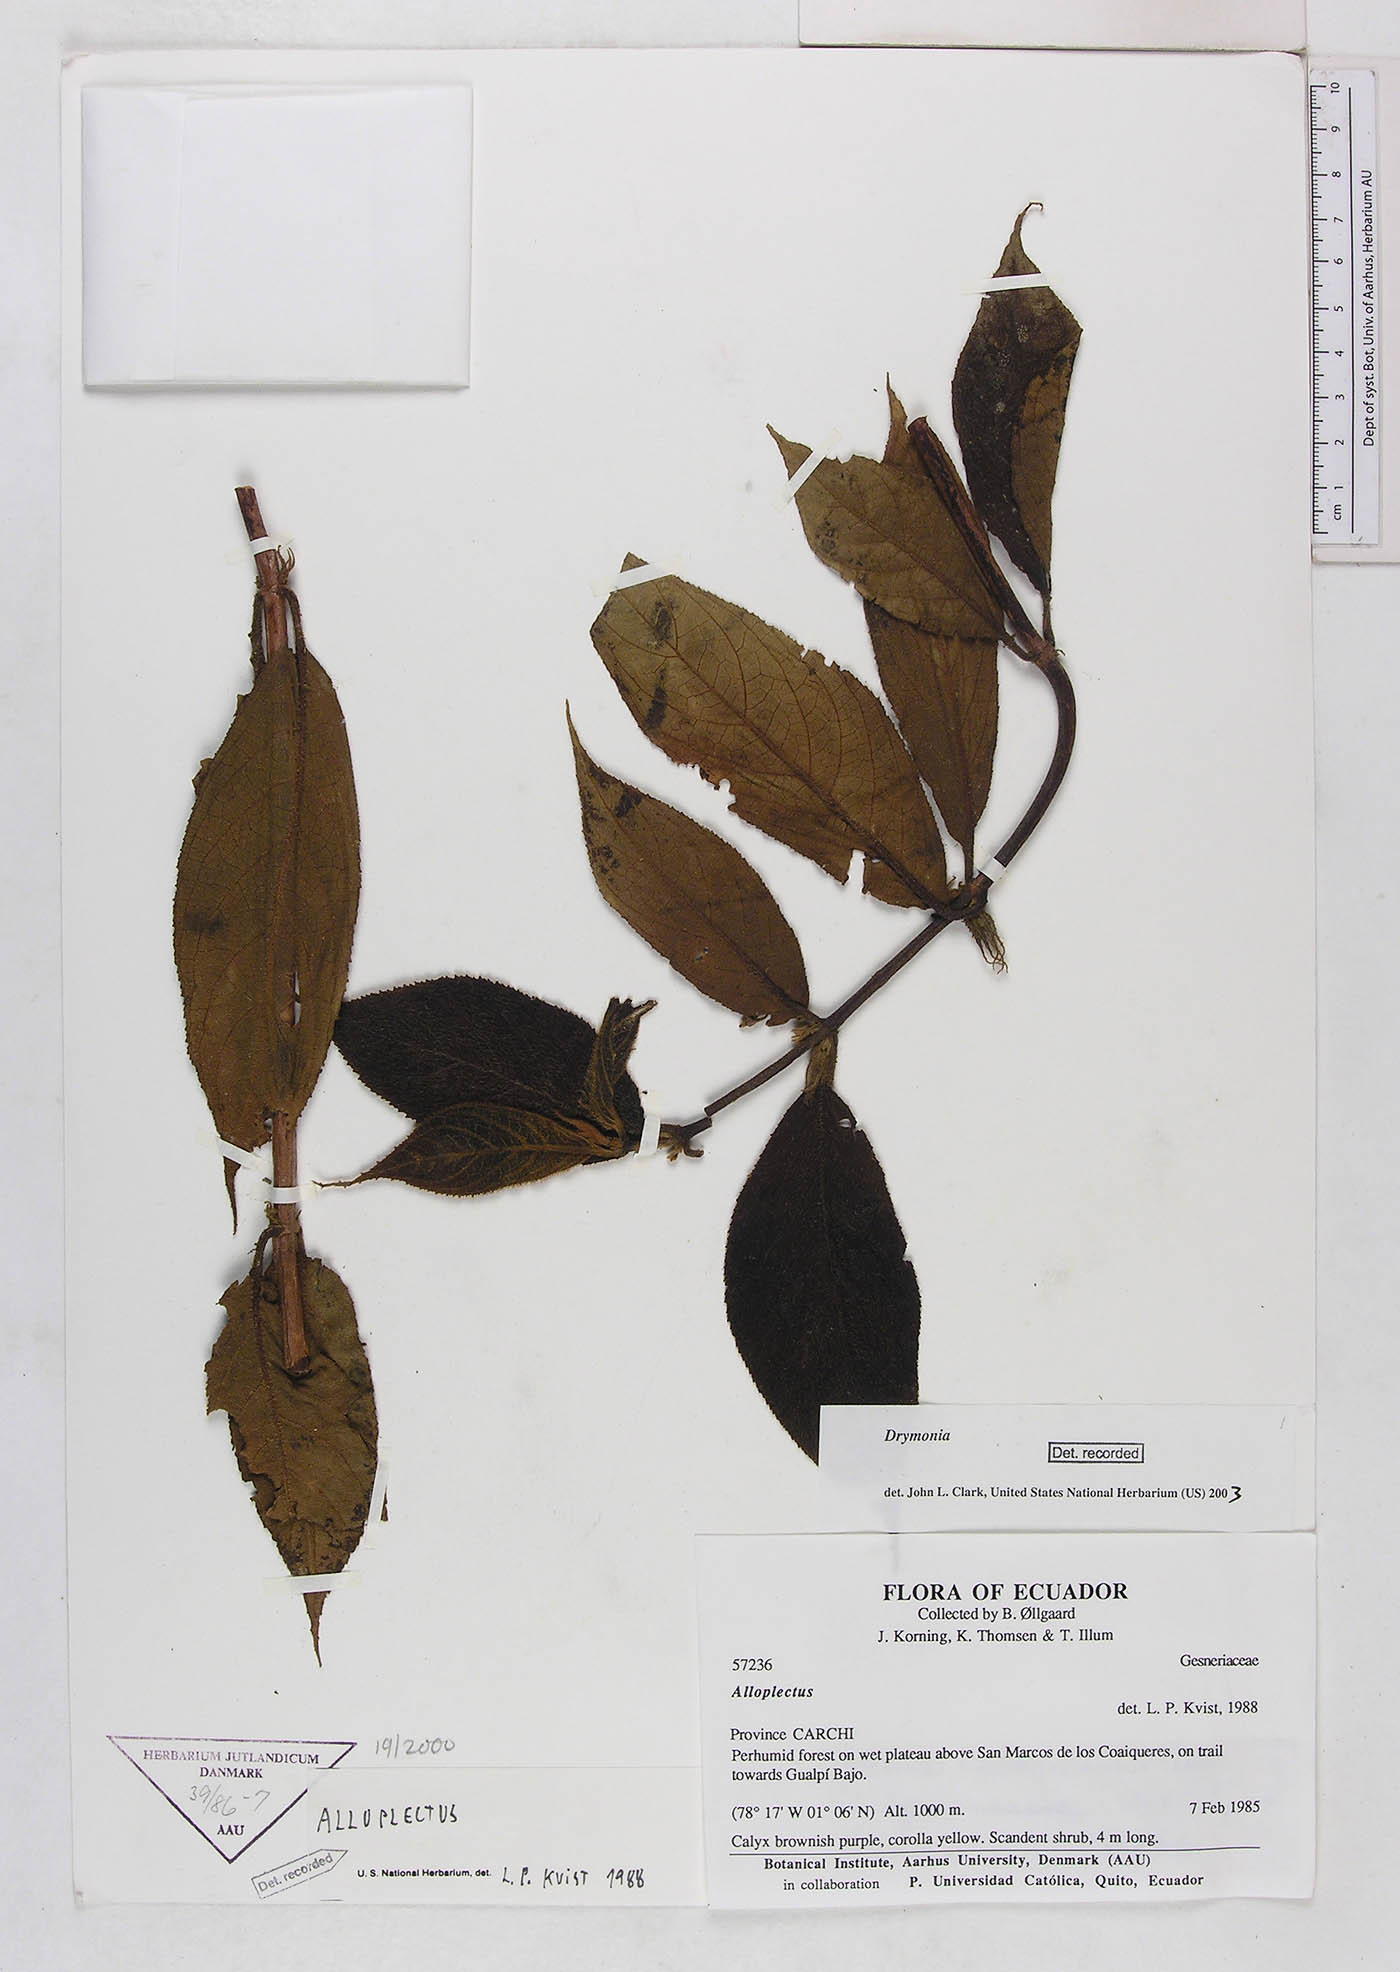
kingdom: Plantae
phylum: Tracheophyta
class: Magnoliopsida
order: Lamiales
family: Gesneriaceae
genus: Drymonia
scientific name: Drymonia
